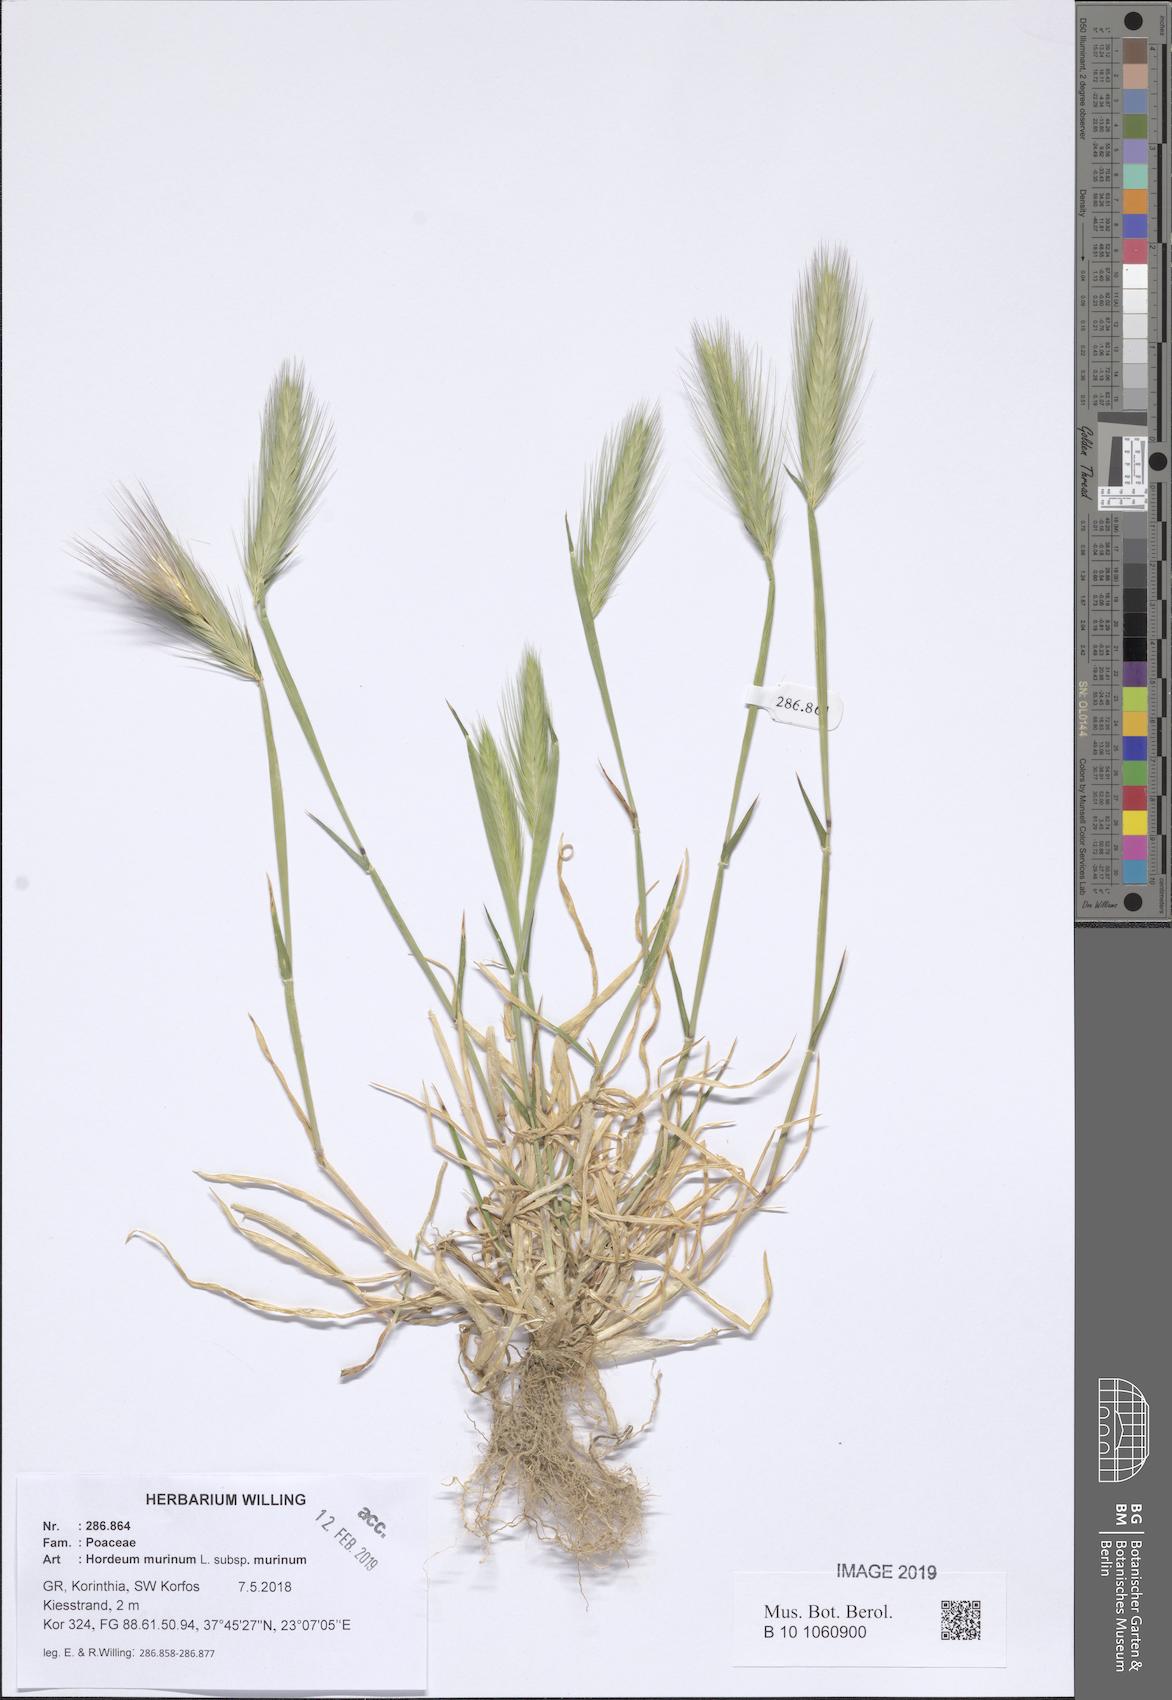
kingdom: Plantae
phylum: Tracheophyta
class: Liliopsida
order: Poales
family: Poaceae
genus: Hordeum
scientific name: Hordeum murinum
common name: Wall barley
